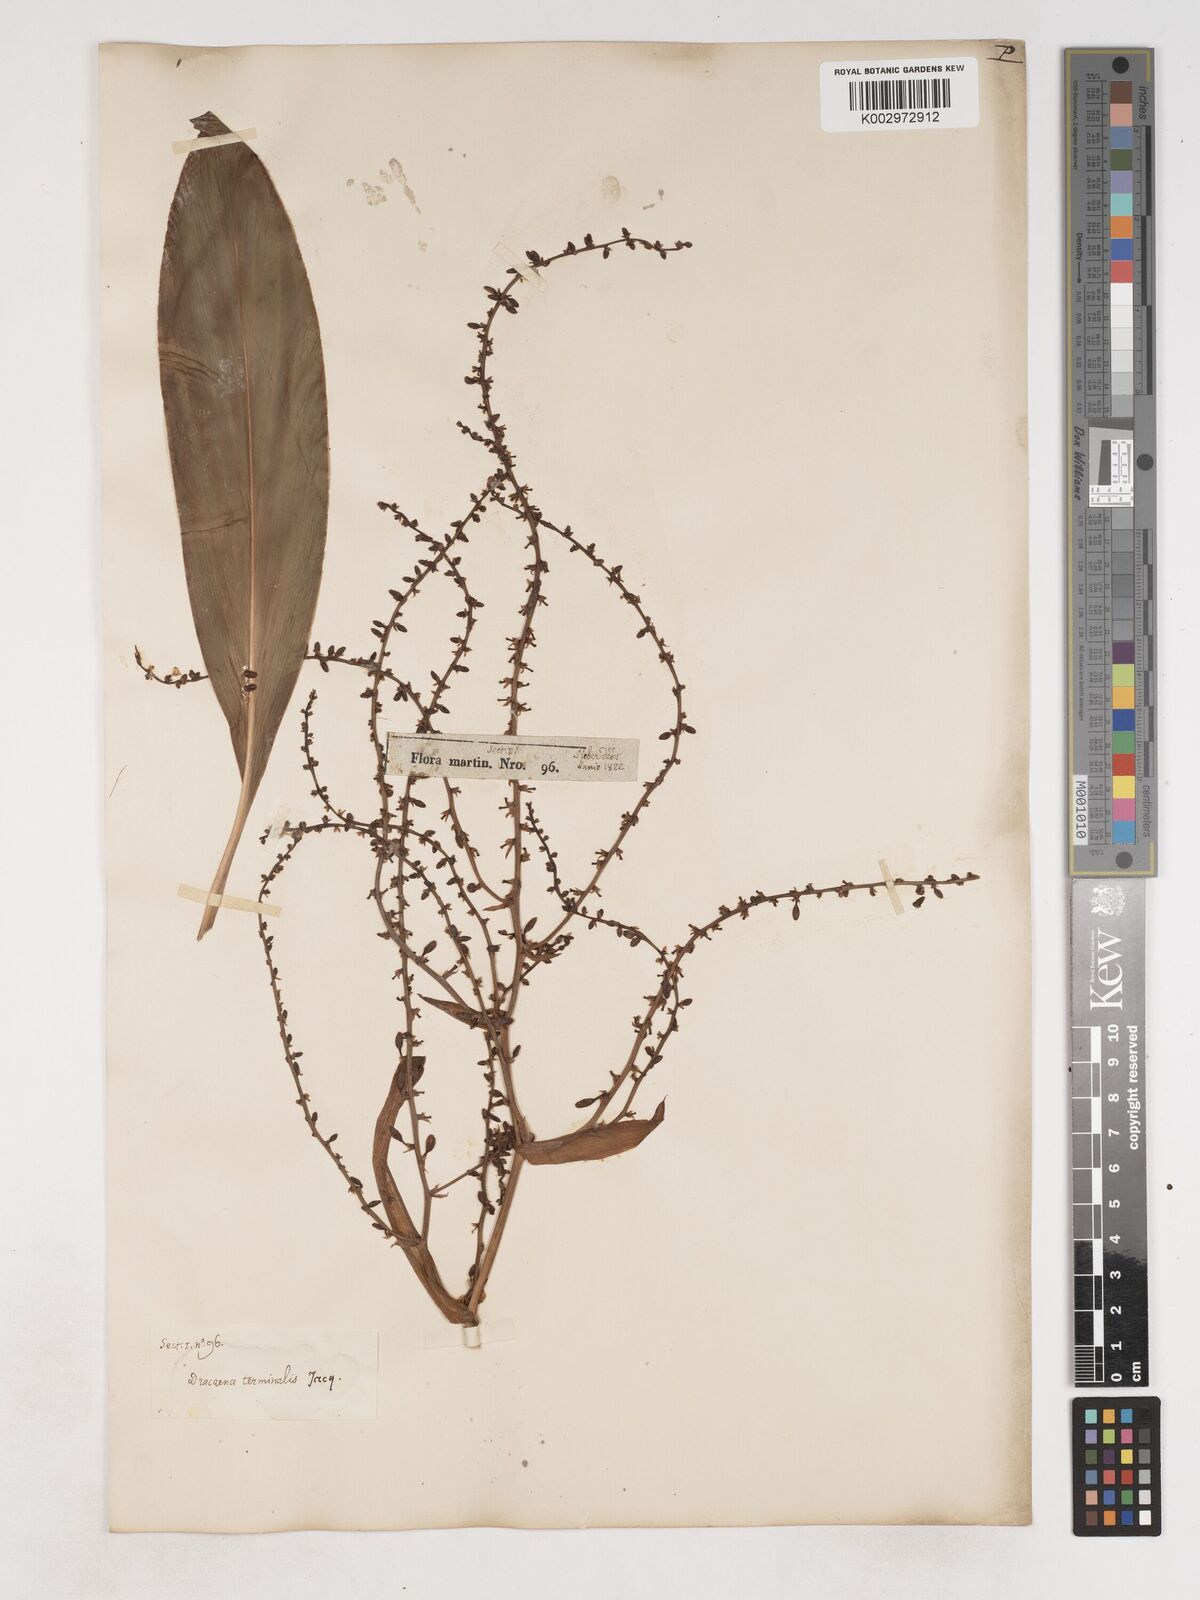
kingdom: Plantae
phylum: Tracheophyta
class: Liliopsida
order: Asparagales
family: Asparagaceae
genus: Cordyline
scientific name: Cordyline fruticosa
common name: Good-luck-plant
